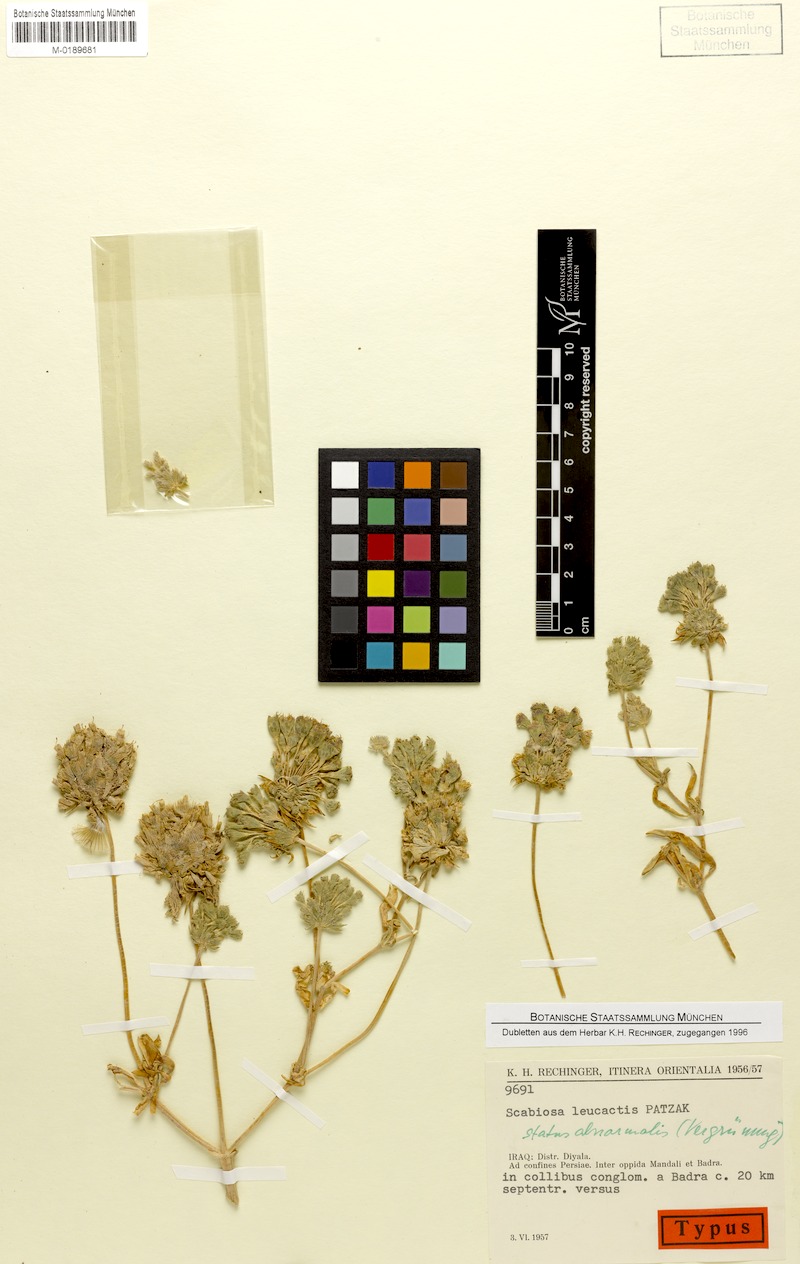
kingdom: Plantae
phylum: Tracheophyta
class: Magnoliopsida
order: Dipsacales
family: Caprifoliaceae
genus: Lomelosia
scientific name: Lomelosia leucactis
